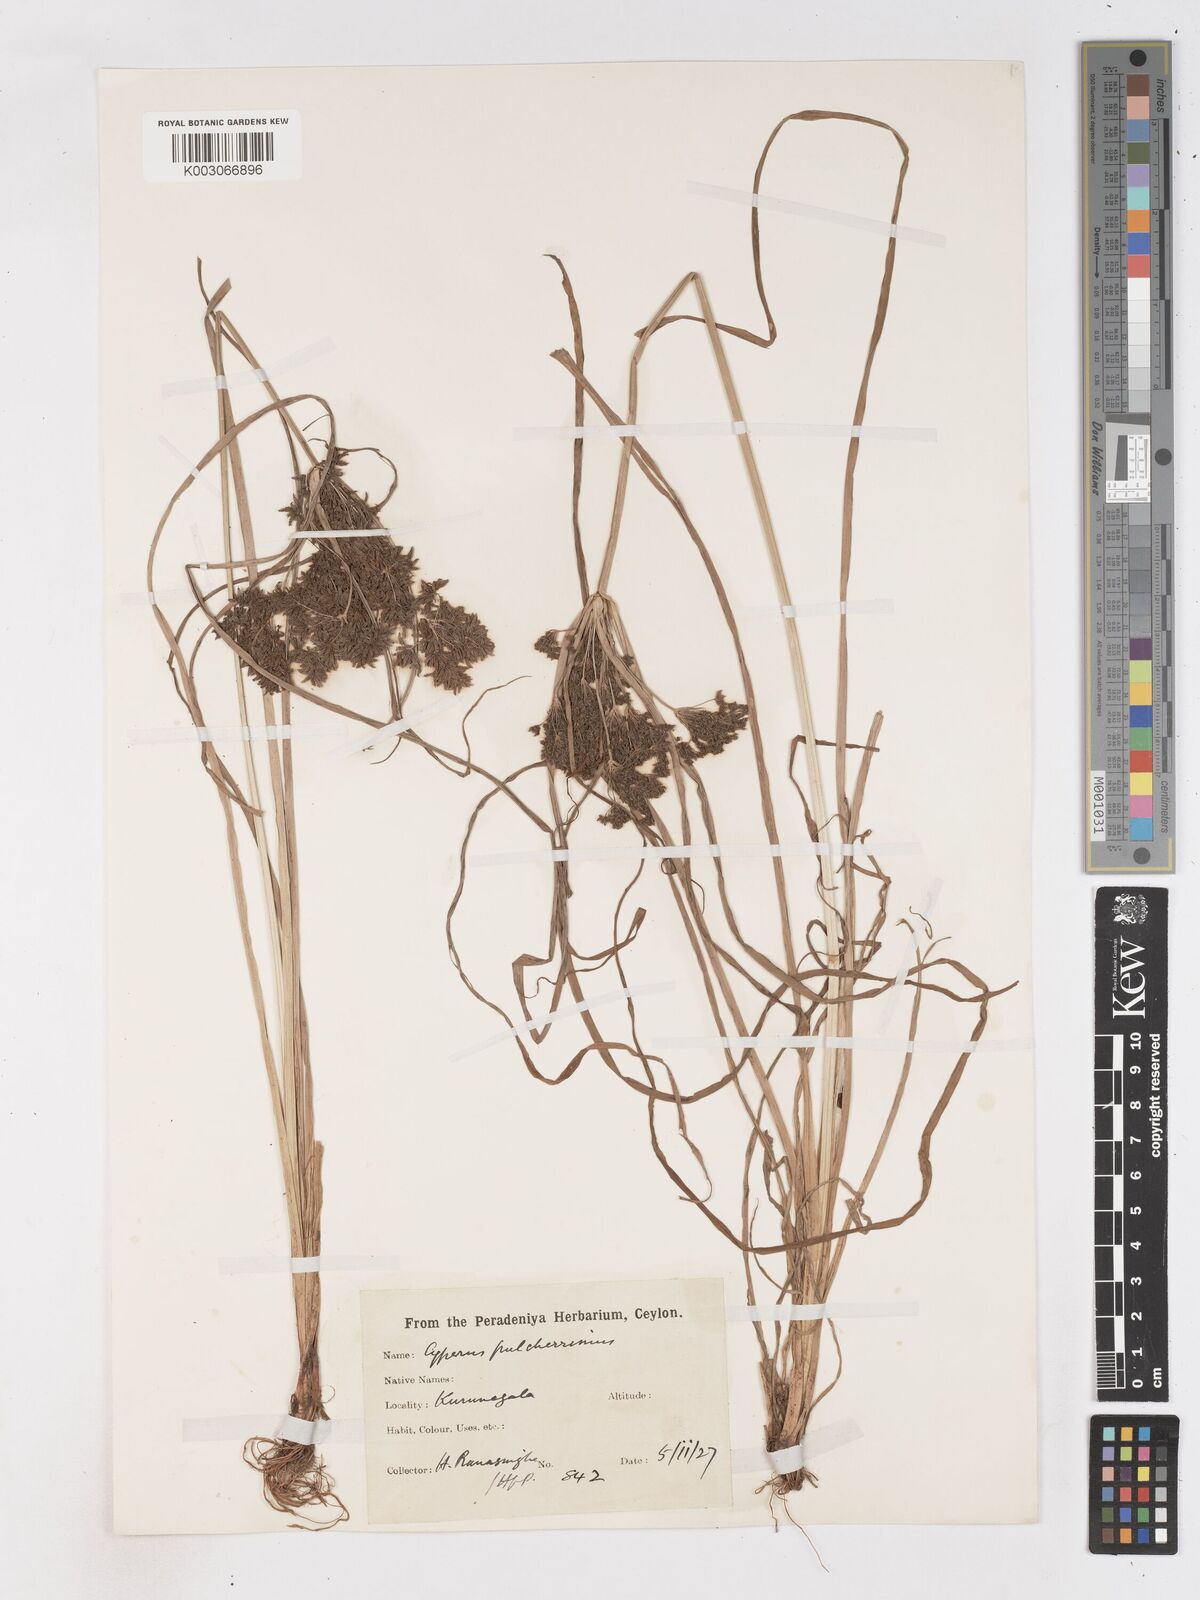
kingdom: Plantae
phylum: Tracheophyta
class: Liliopsida
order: Poales
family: Cyperaceae
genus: Cyperus
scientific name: Cyperus pulcherrimus
